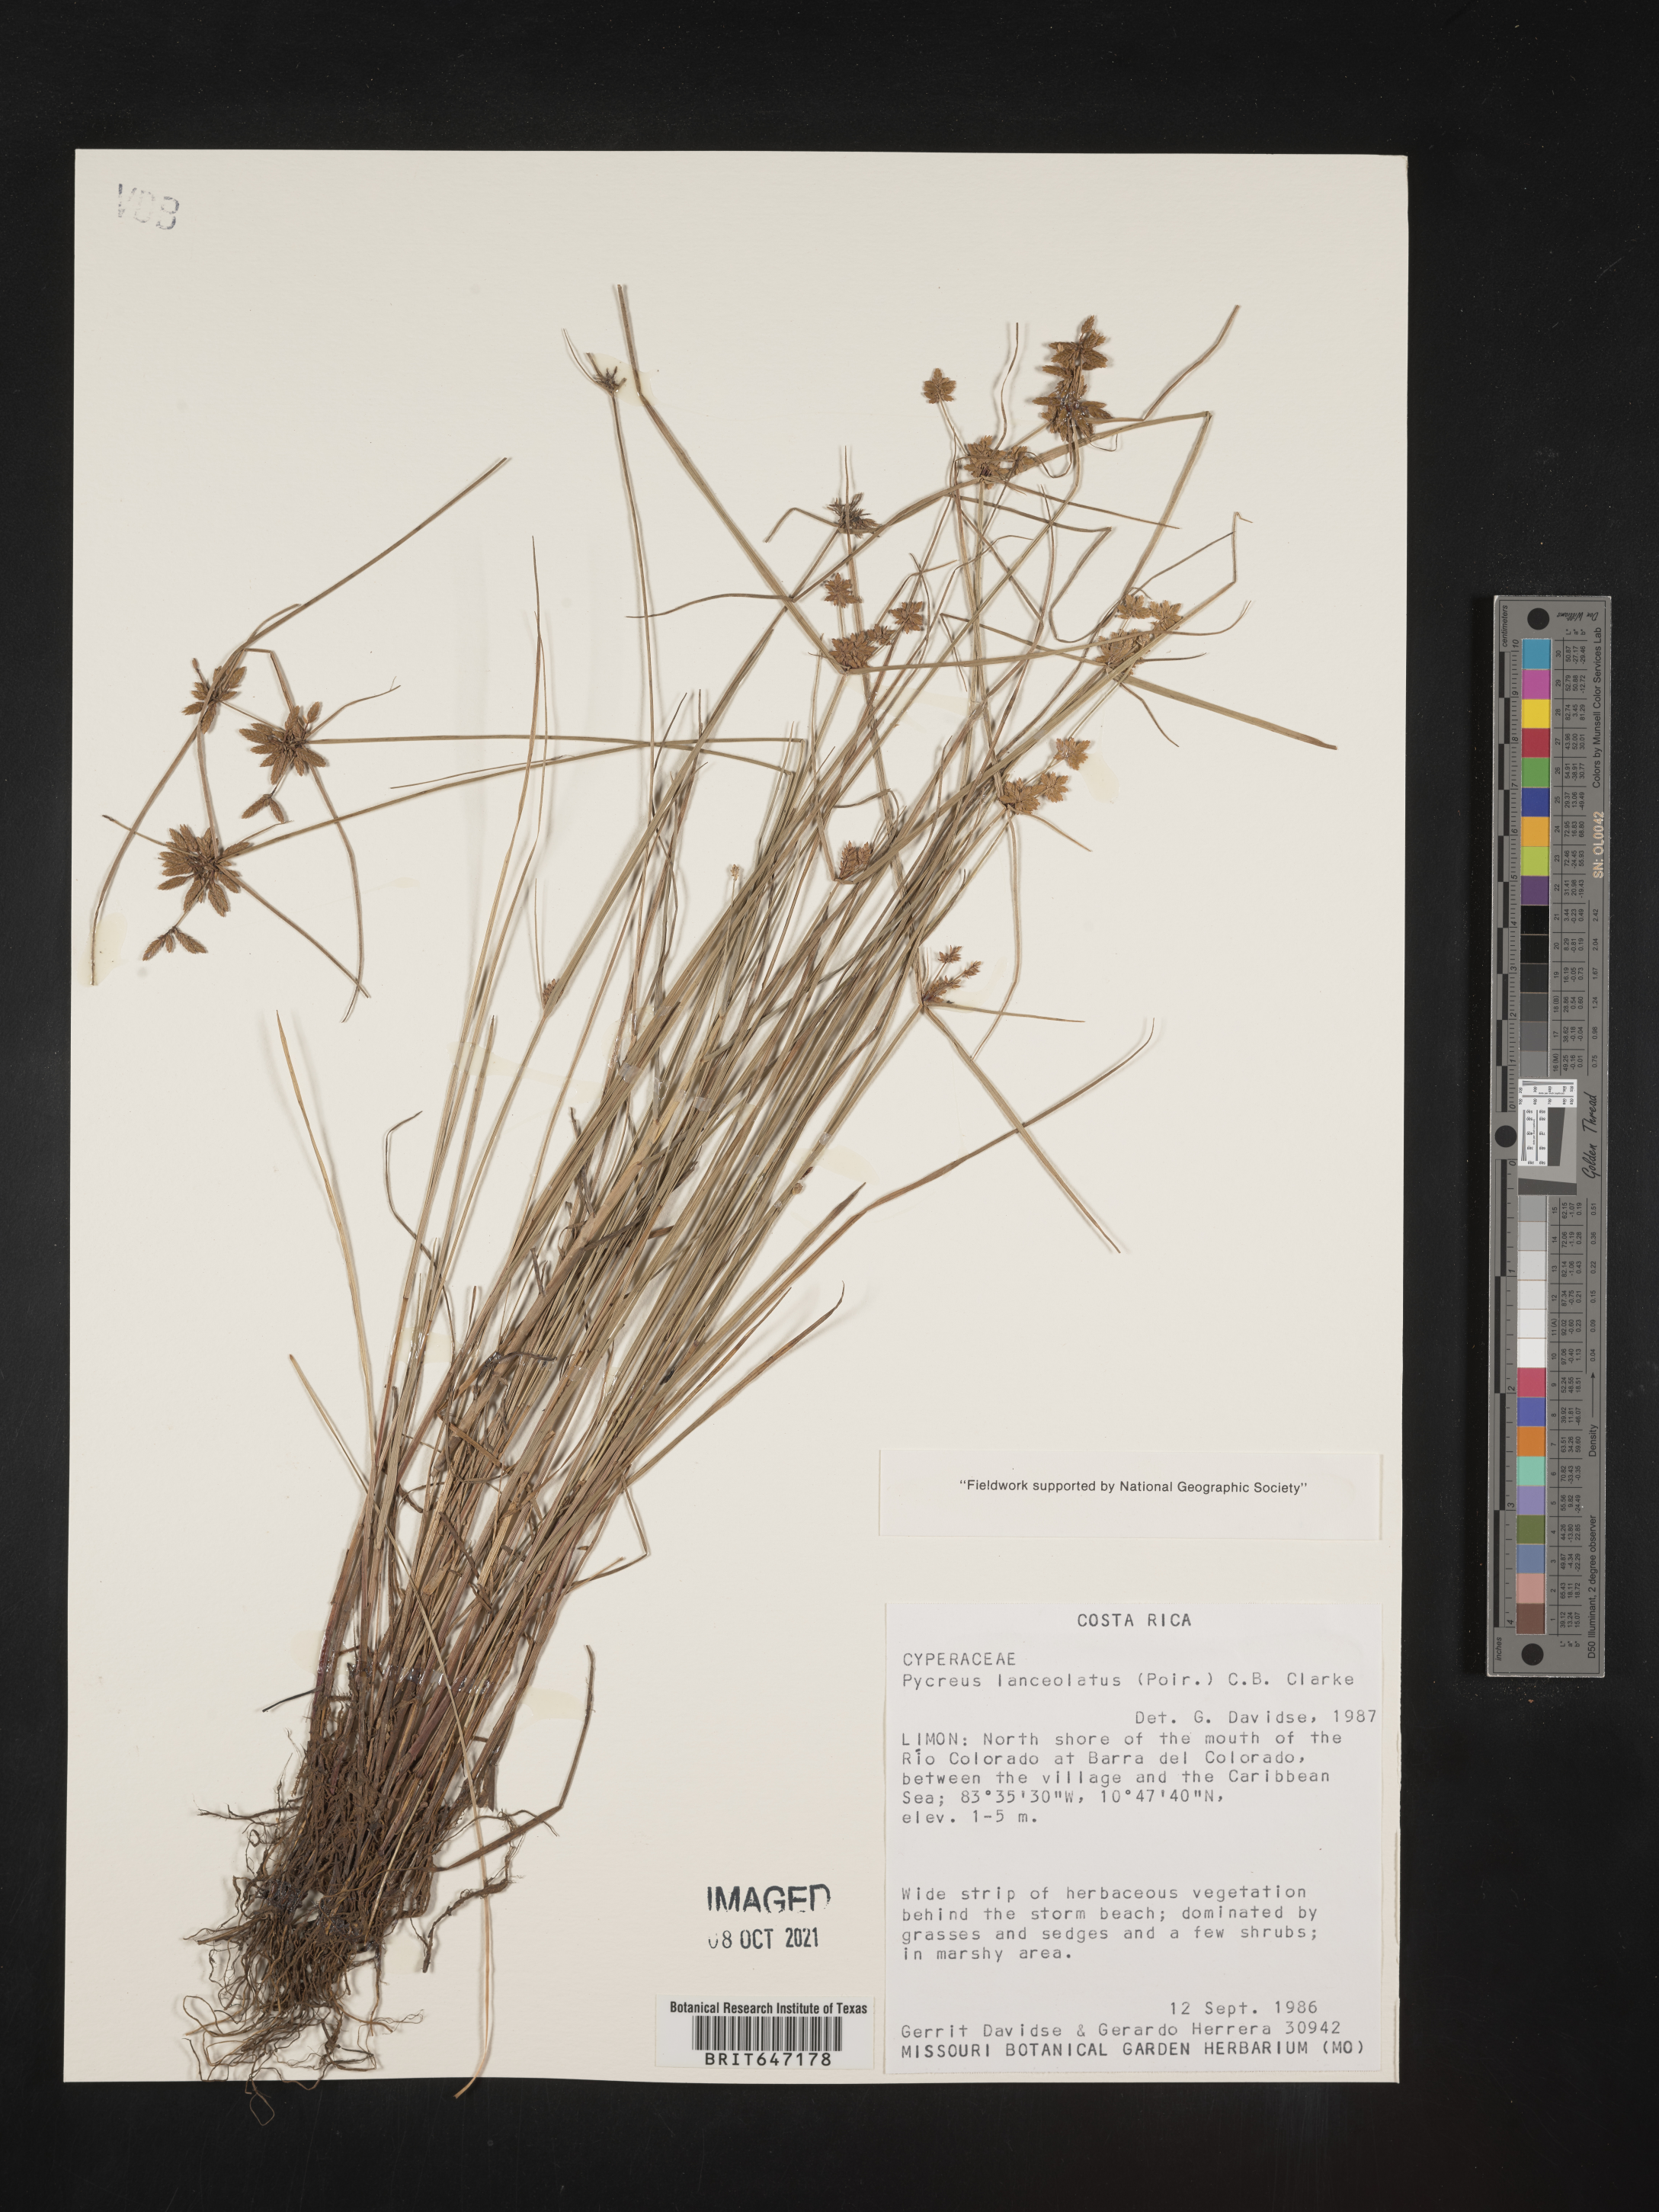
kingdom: Plantae
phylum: Tracheophyta
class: Liliopsida
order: Poales
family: Cyperaceae
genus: Cyperus
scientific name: Cyperus lanceolatus
